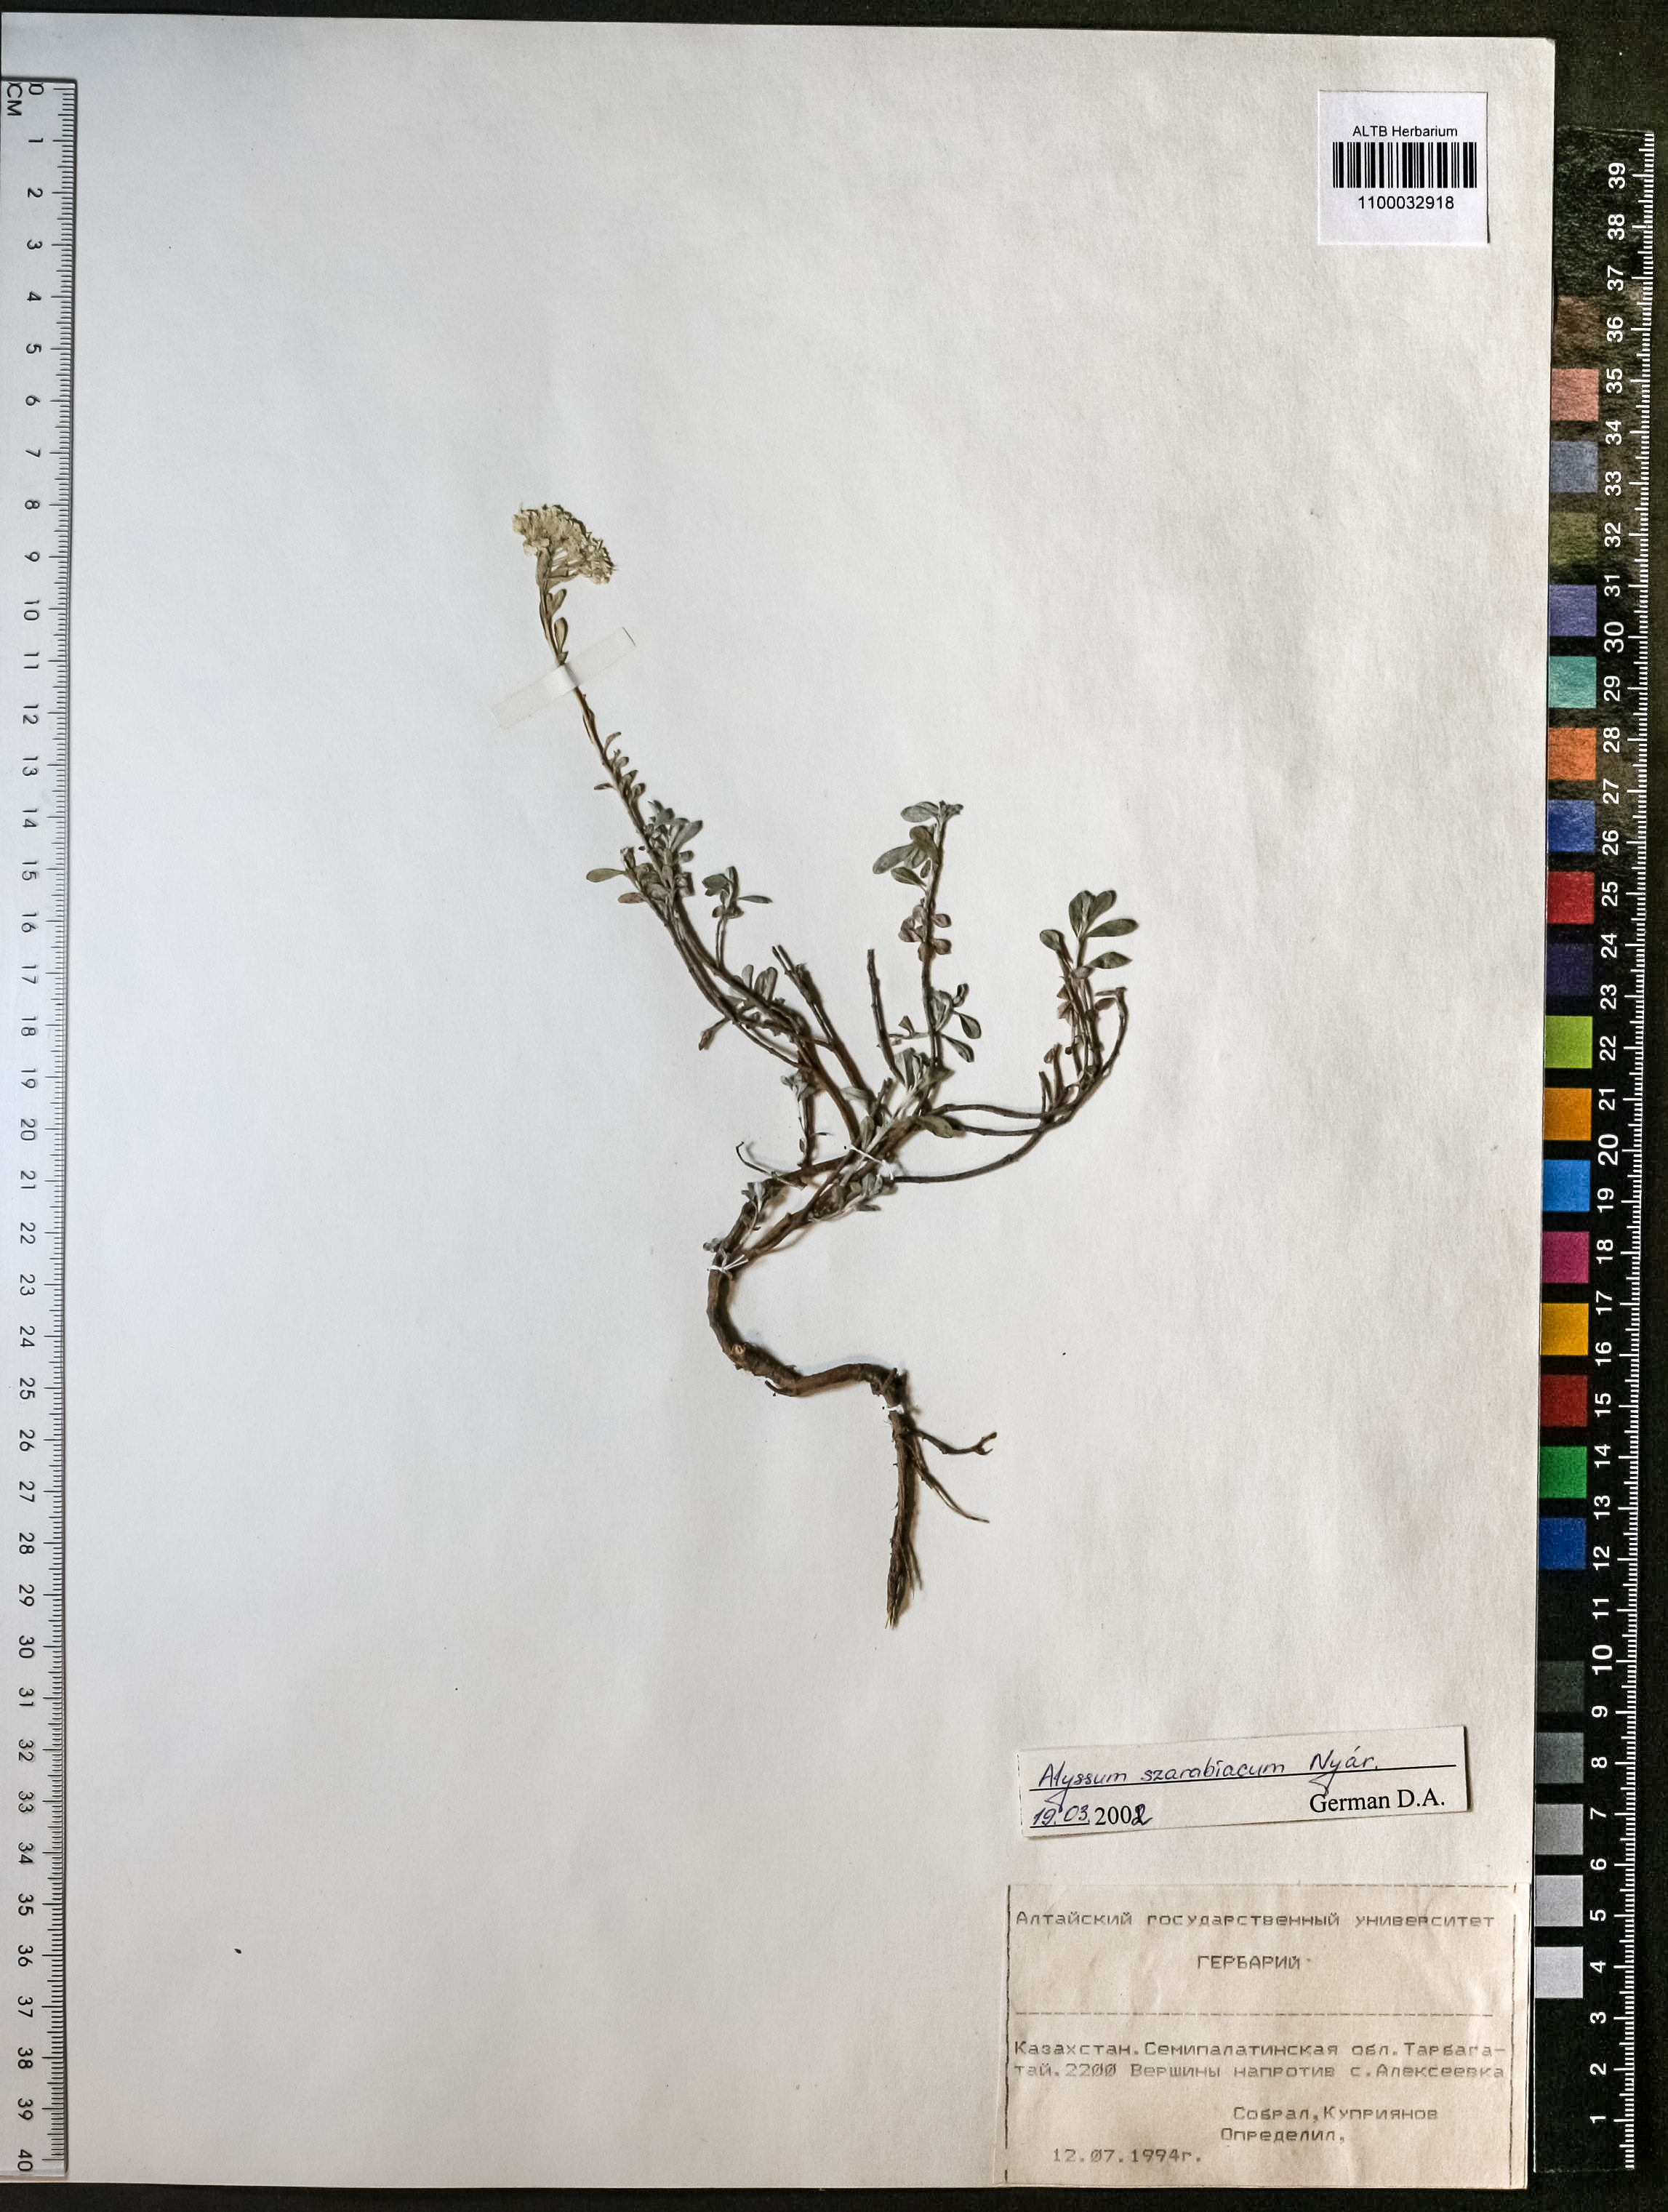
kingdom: Plantae
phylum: Tracheophyta
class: Magnoliopsida
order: Brassicales
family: Brassicaceae
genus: Odontarrhena
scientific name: Odontarrhena szarabiaca
